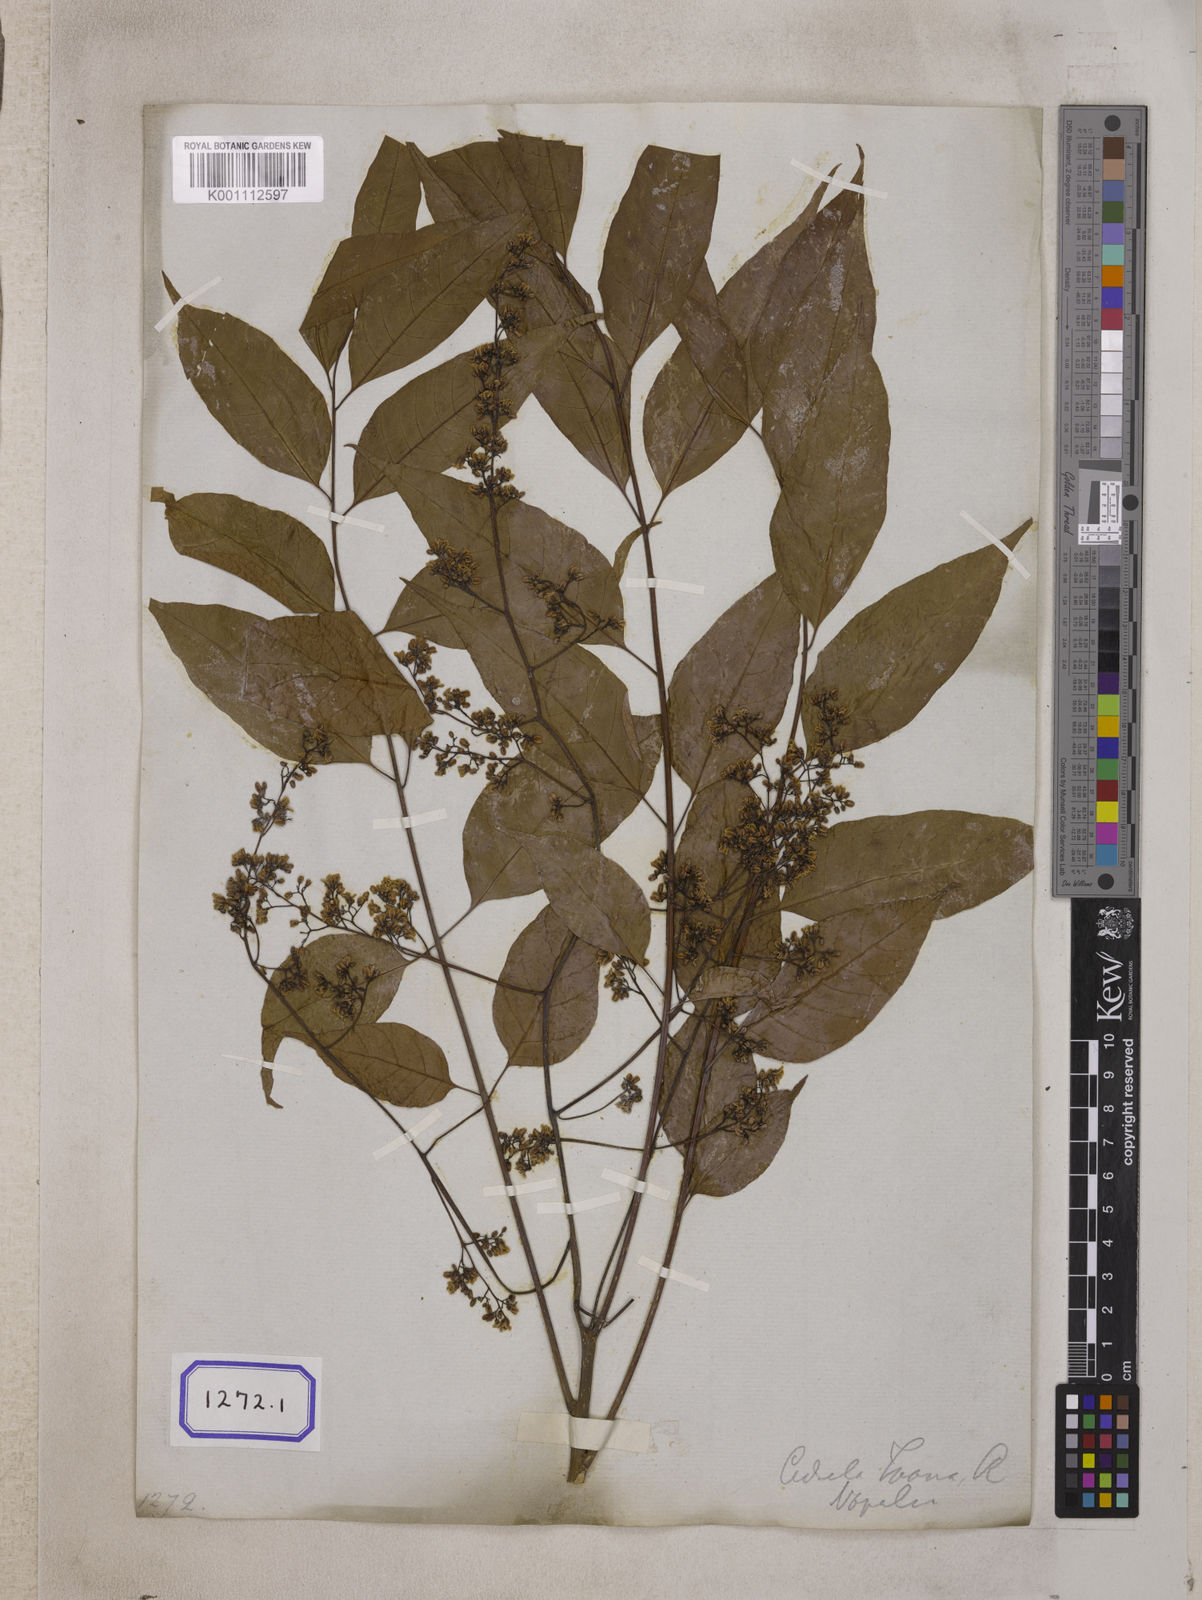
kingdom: Plantae
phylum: Tracheophyta
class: Magnoliopsida
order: Sapindales
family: Meliaceae
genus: Cedrela
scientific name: Cedrela
